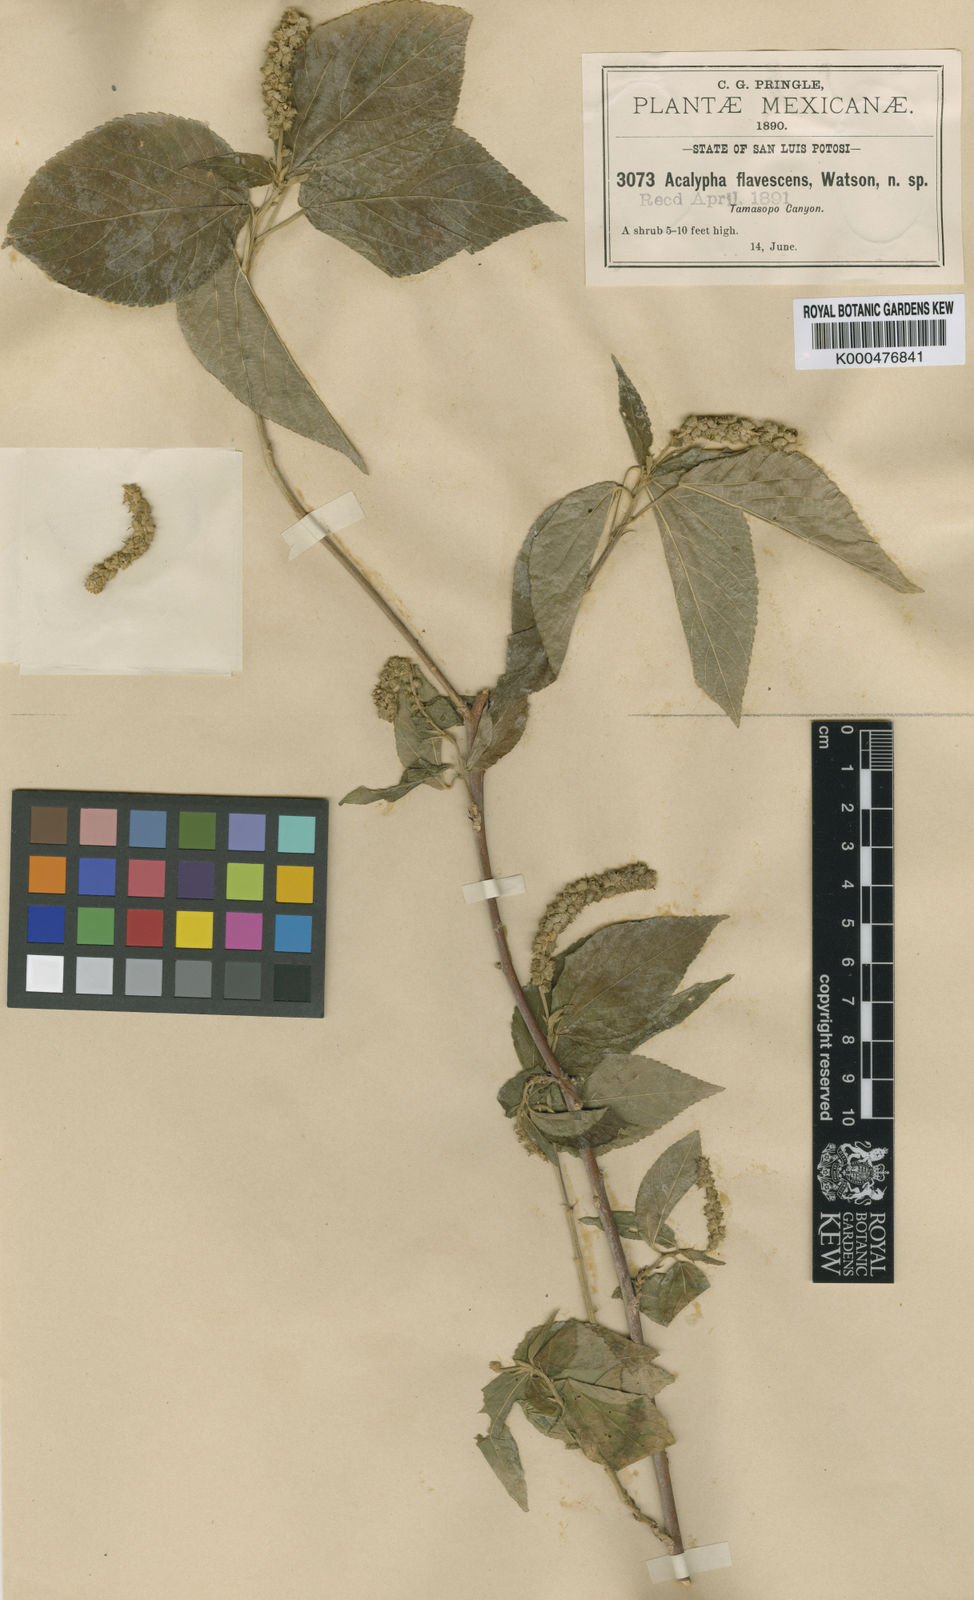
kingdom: Plantae
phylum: Tracheophyta
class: Magnoliopsida
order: Malpighiales
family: Euphorbiaceae
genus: Acalypha
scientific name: Acalypha flavescens
